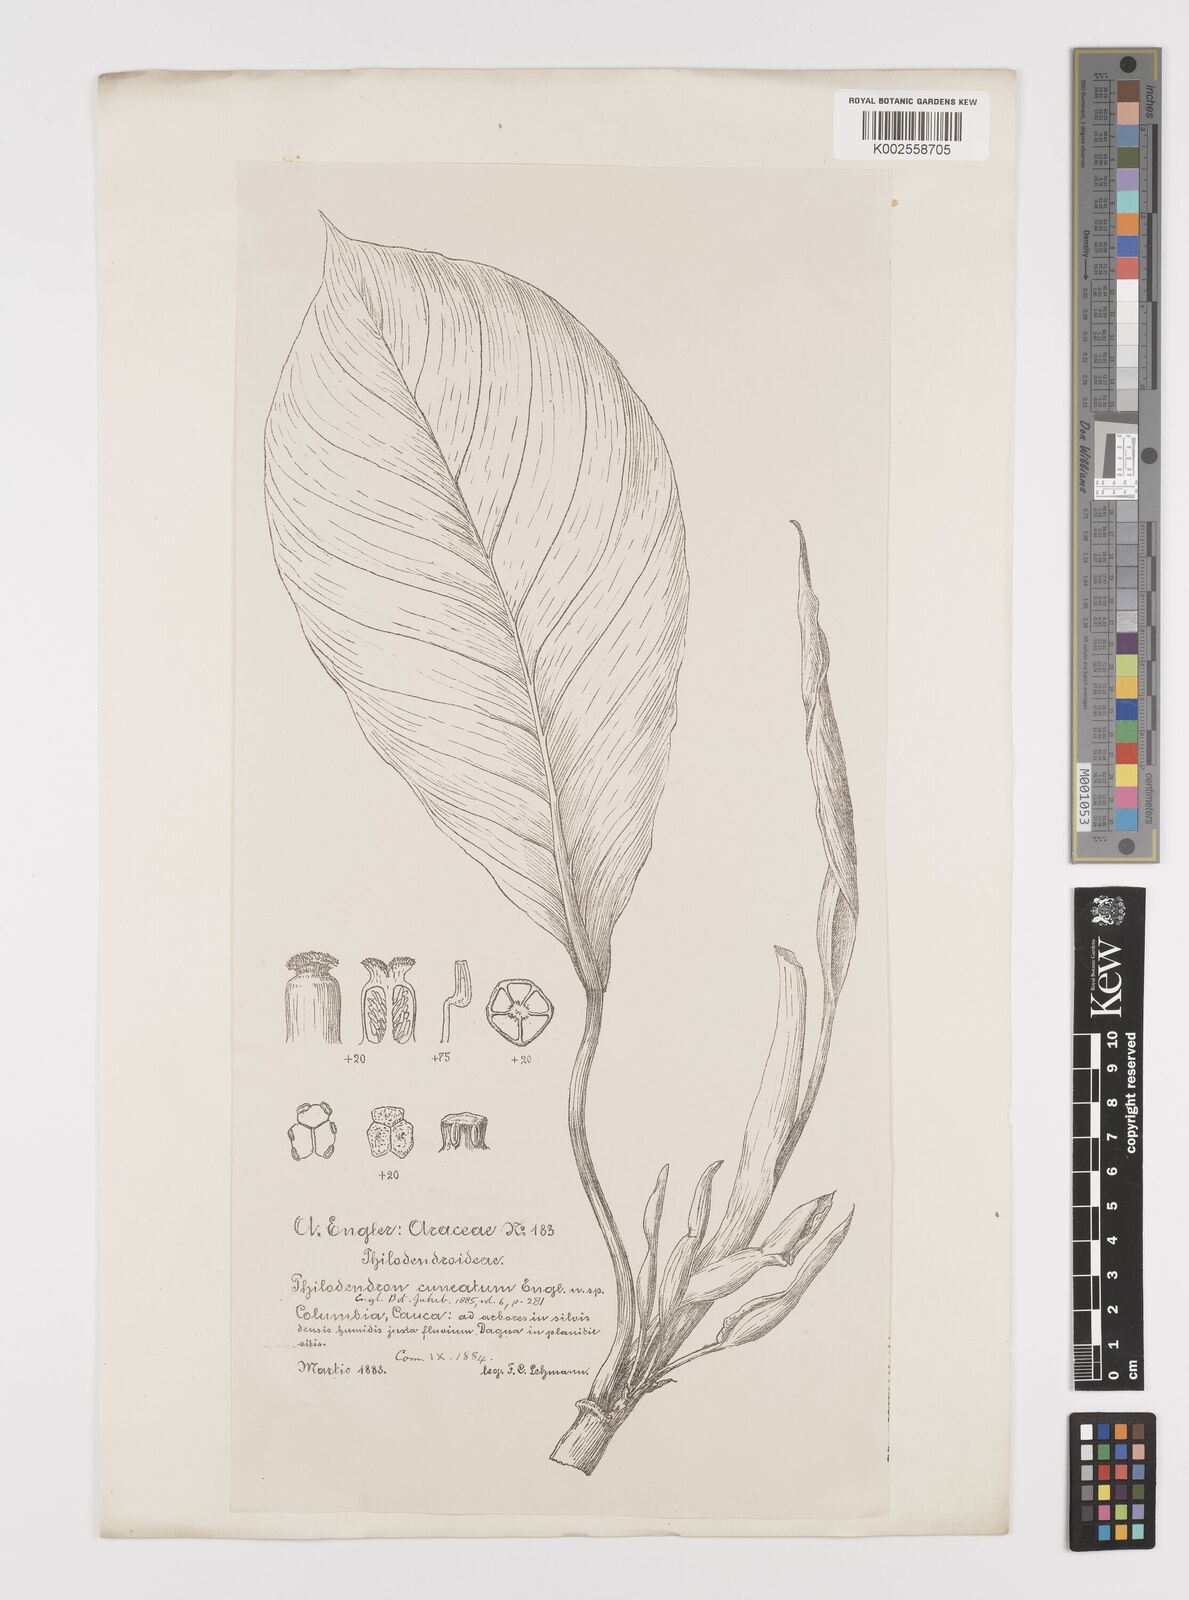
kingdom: Plantae
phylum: Tracheophyta
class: Liliopsida
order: Alismatales
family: Araceae
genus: Philodendron
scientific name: Philodendron cuneatum
